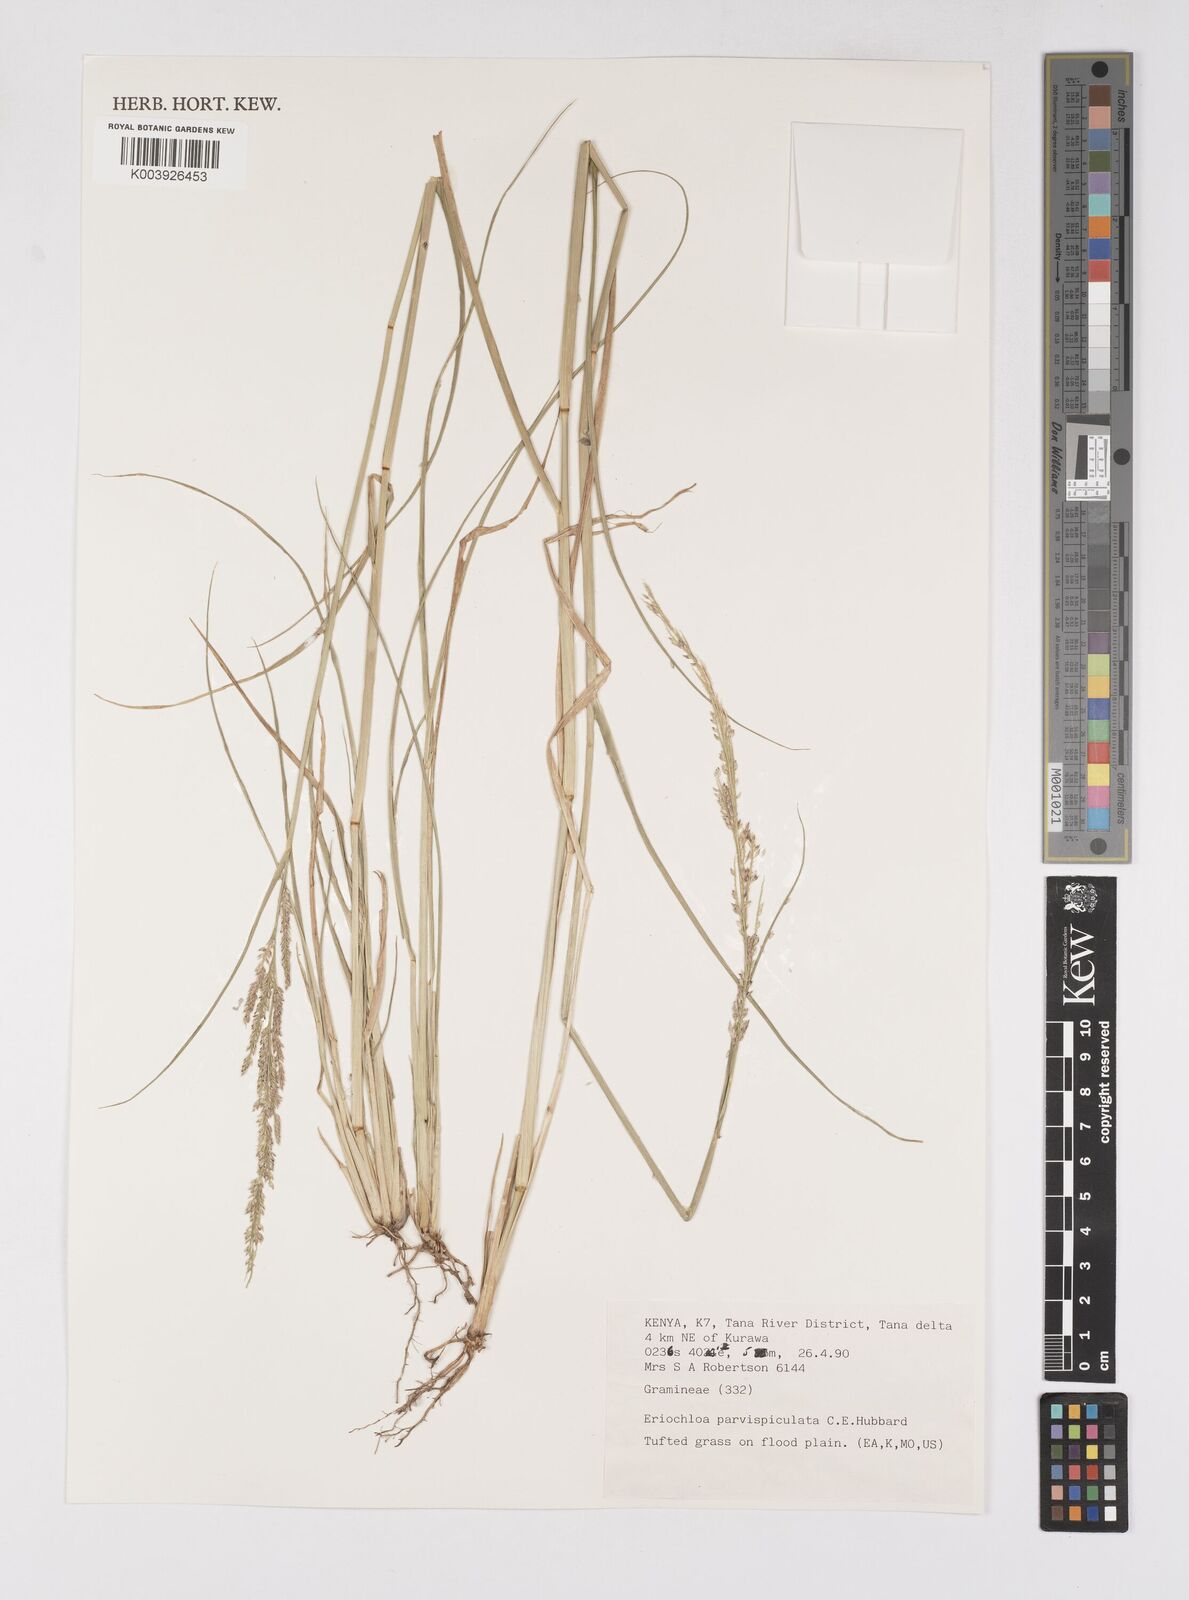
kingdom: Plantae
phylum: Tracheophyta
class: Liliopsida
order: Poales
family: Poaceae
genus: Eriochloa
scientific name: Eriochloa parvispiculata
